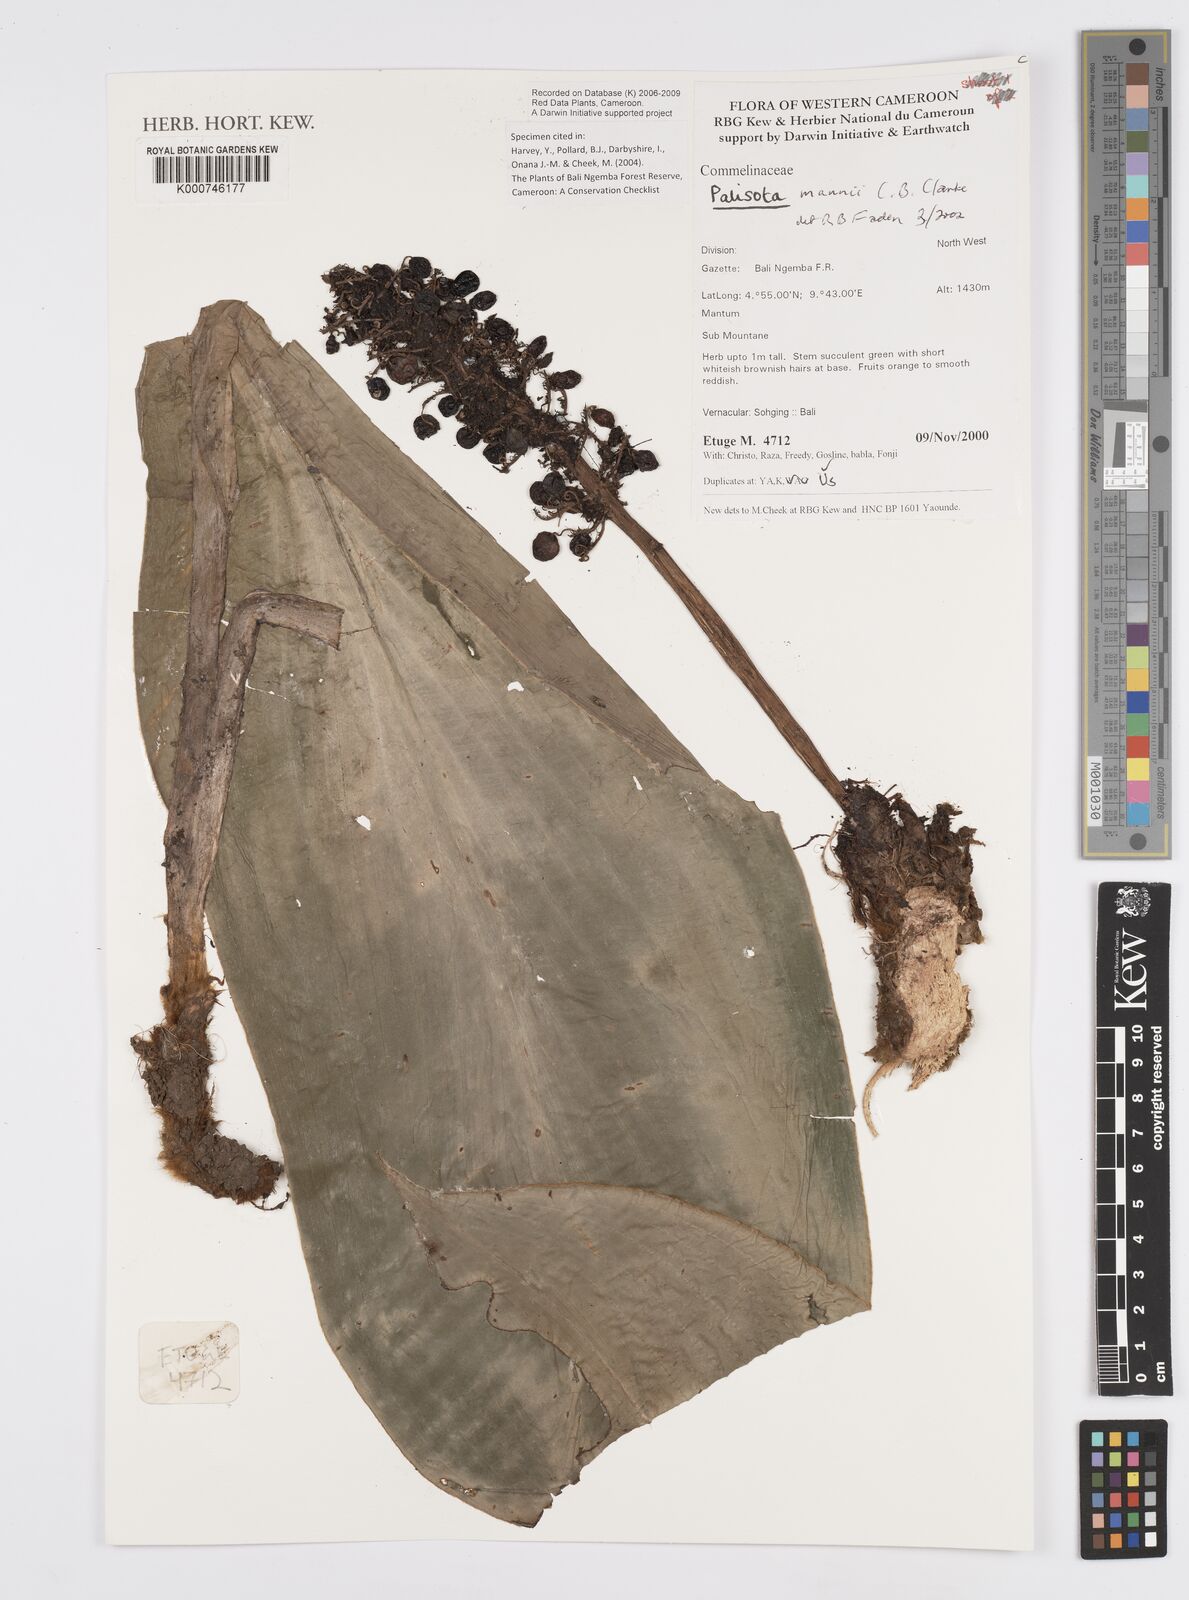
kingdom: Plantae
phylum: Tracheophyta
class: Liliopsida
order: Commelinales
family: Commelinaceae
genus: Palisota
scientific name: Palisota mannii
